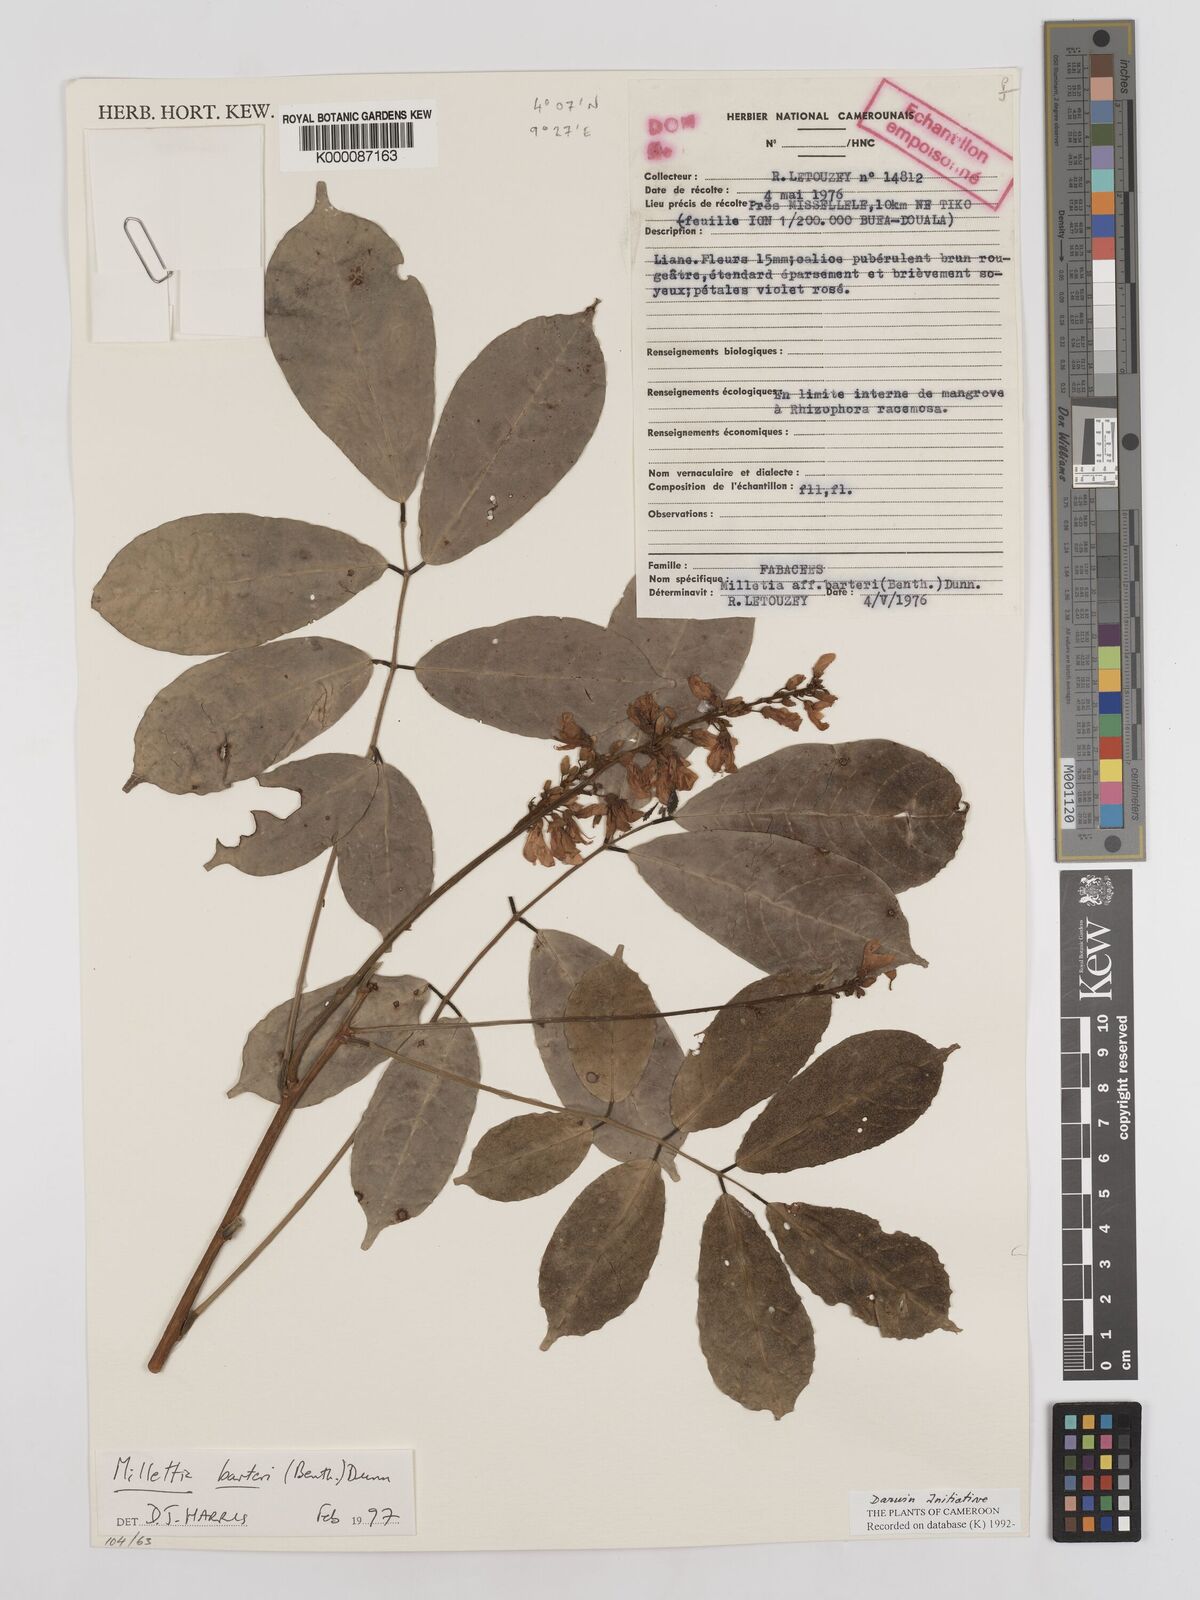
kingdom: Plantae
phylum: Tracheophyta
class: Magnoliopsida
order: Fabales
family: Fabaceae
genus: Millettia
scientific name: Millettia barteri
